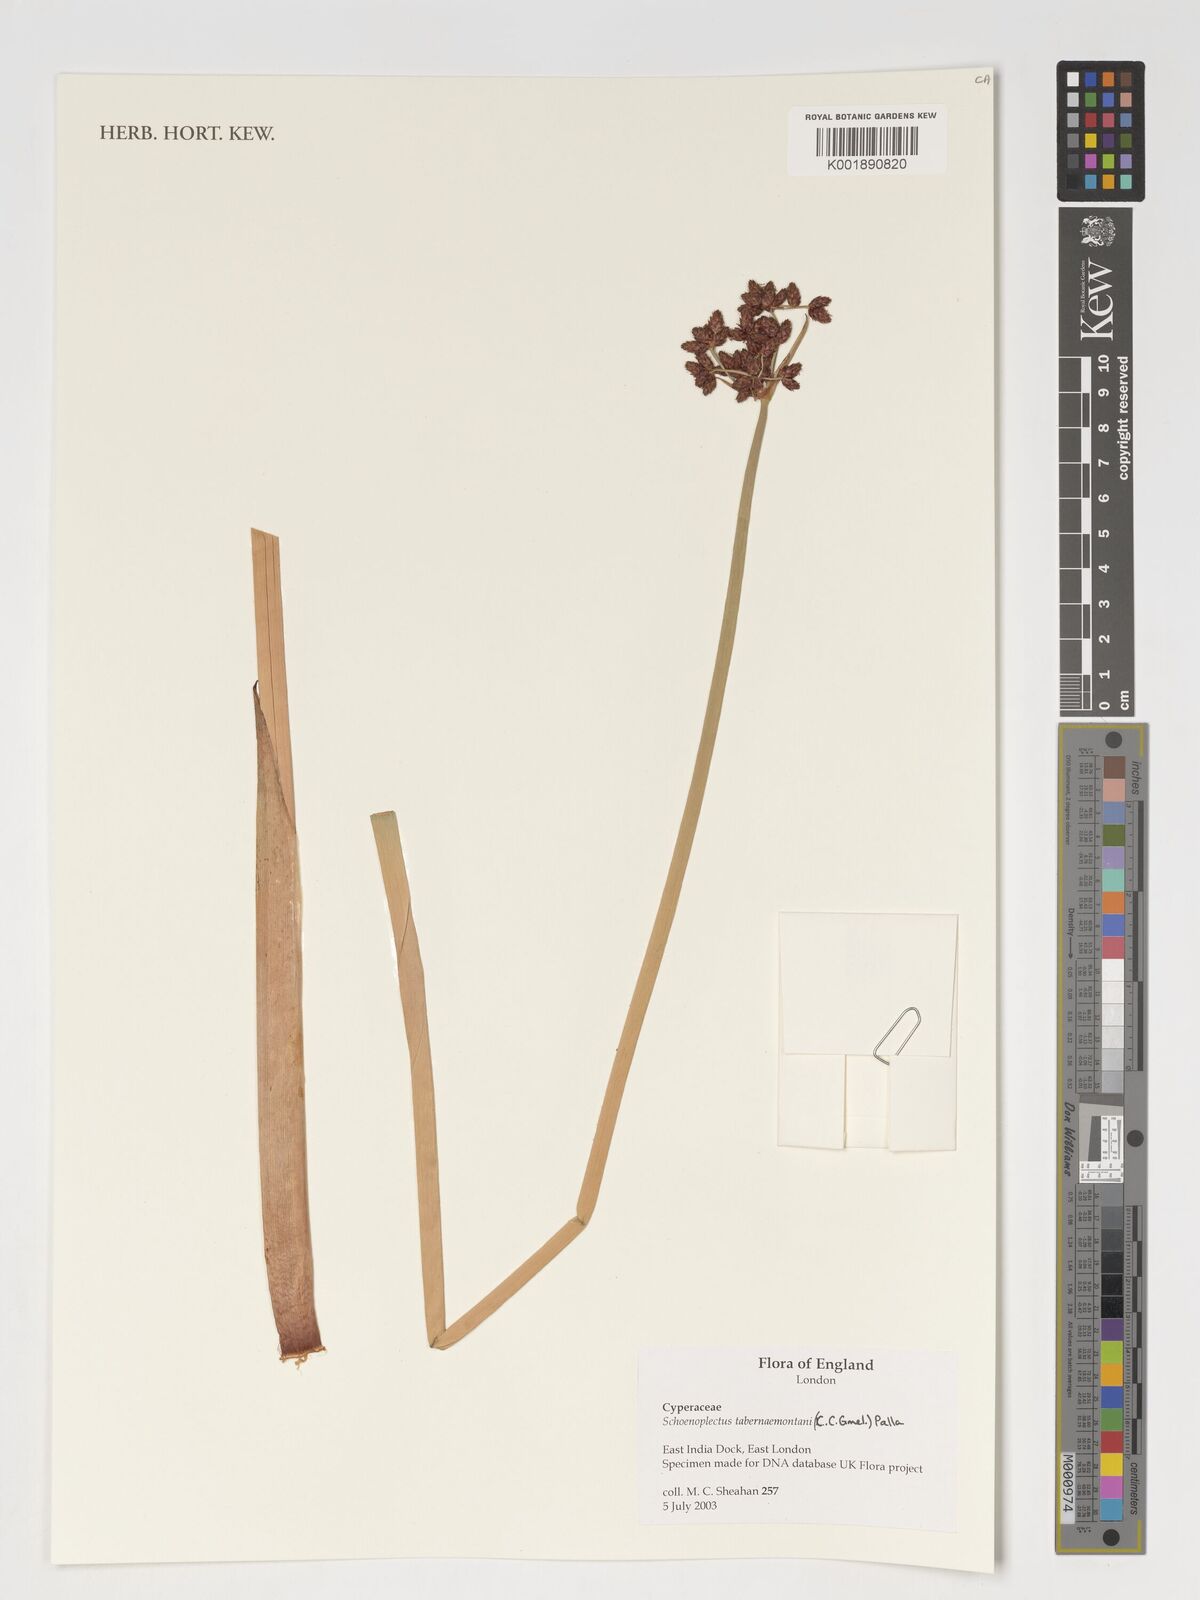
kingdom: Plantae
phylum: Tracheophyta
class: Liliopsida
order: Poales
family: Cyperaceae
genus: Schoenoplectus
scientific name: Schoenoplectus tabernaemontani
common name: Grey club-rush
